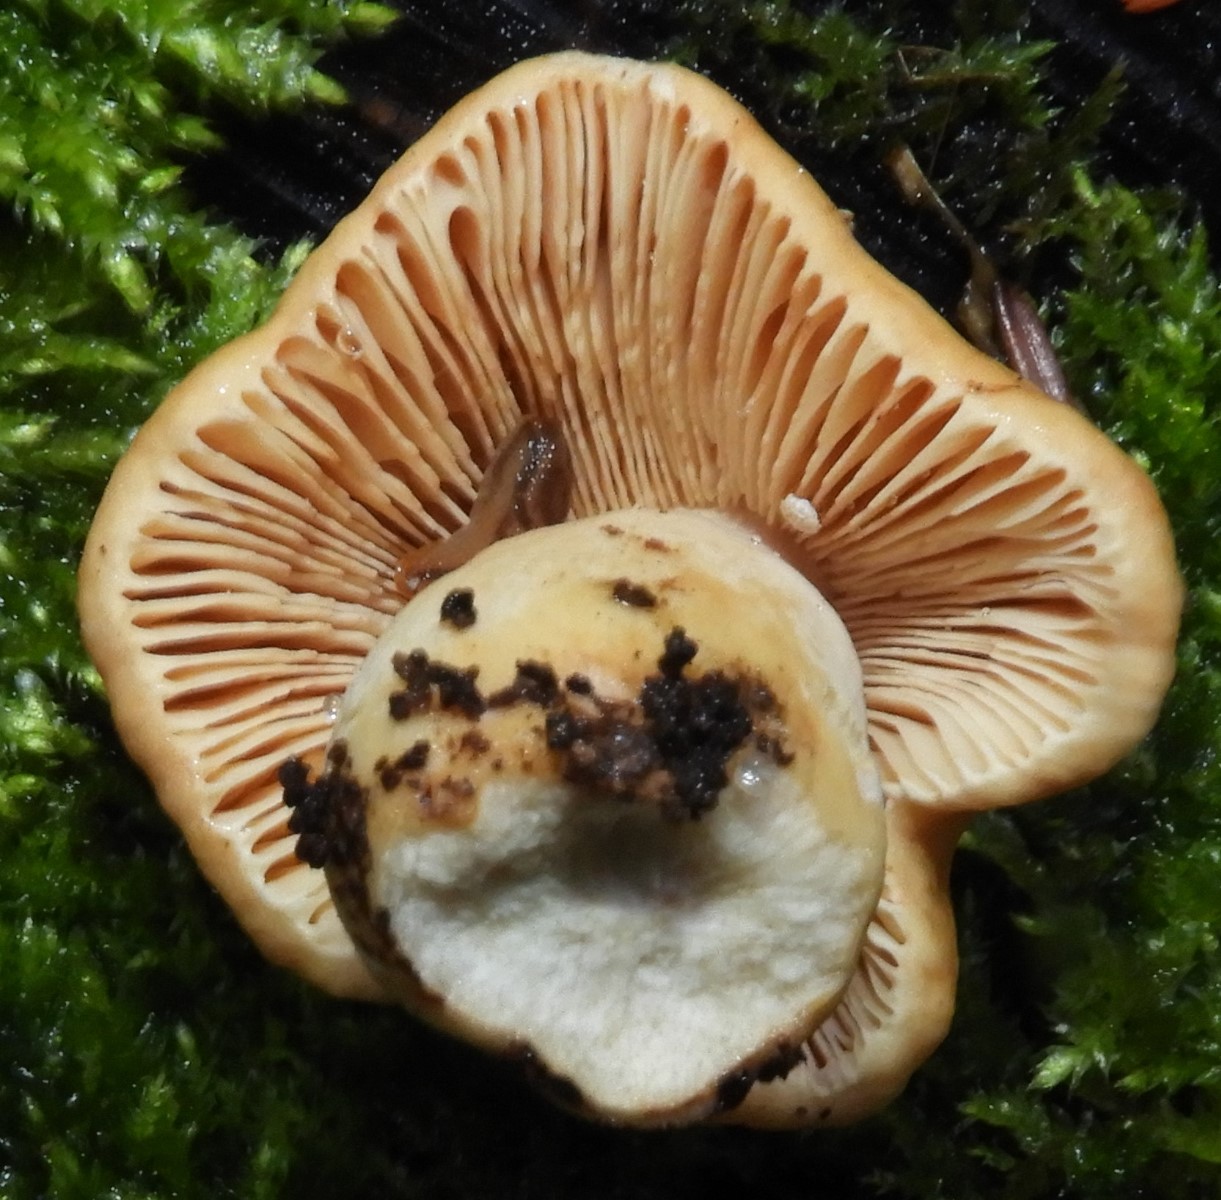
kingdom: Fungi
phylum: Basidiomycota
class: Agaricomycetes
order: Russulales
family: Russulaceae
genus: Lactifluus
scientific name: Lactifluus
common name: mælkehat
